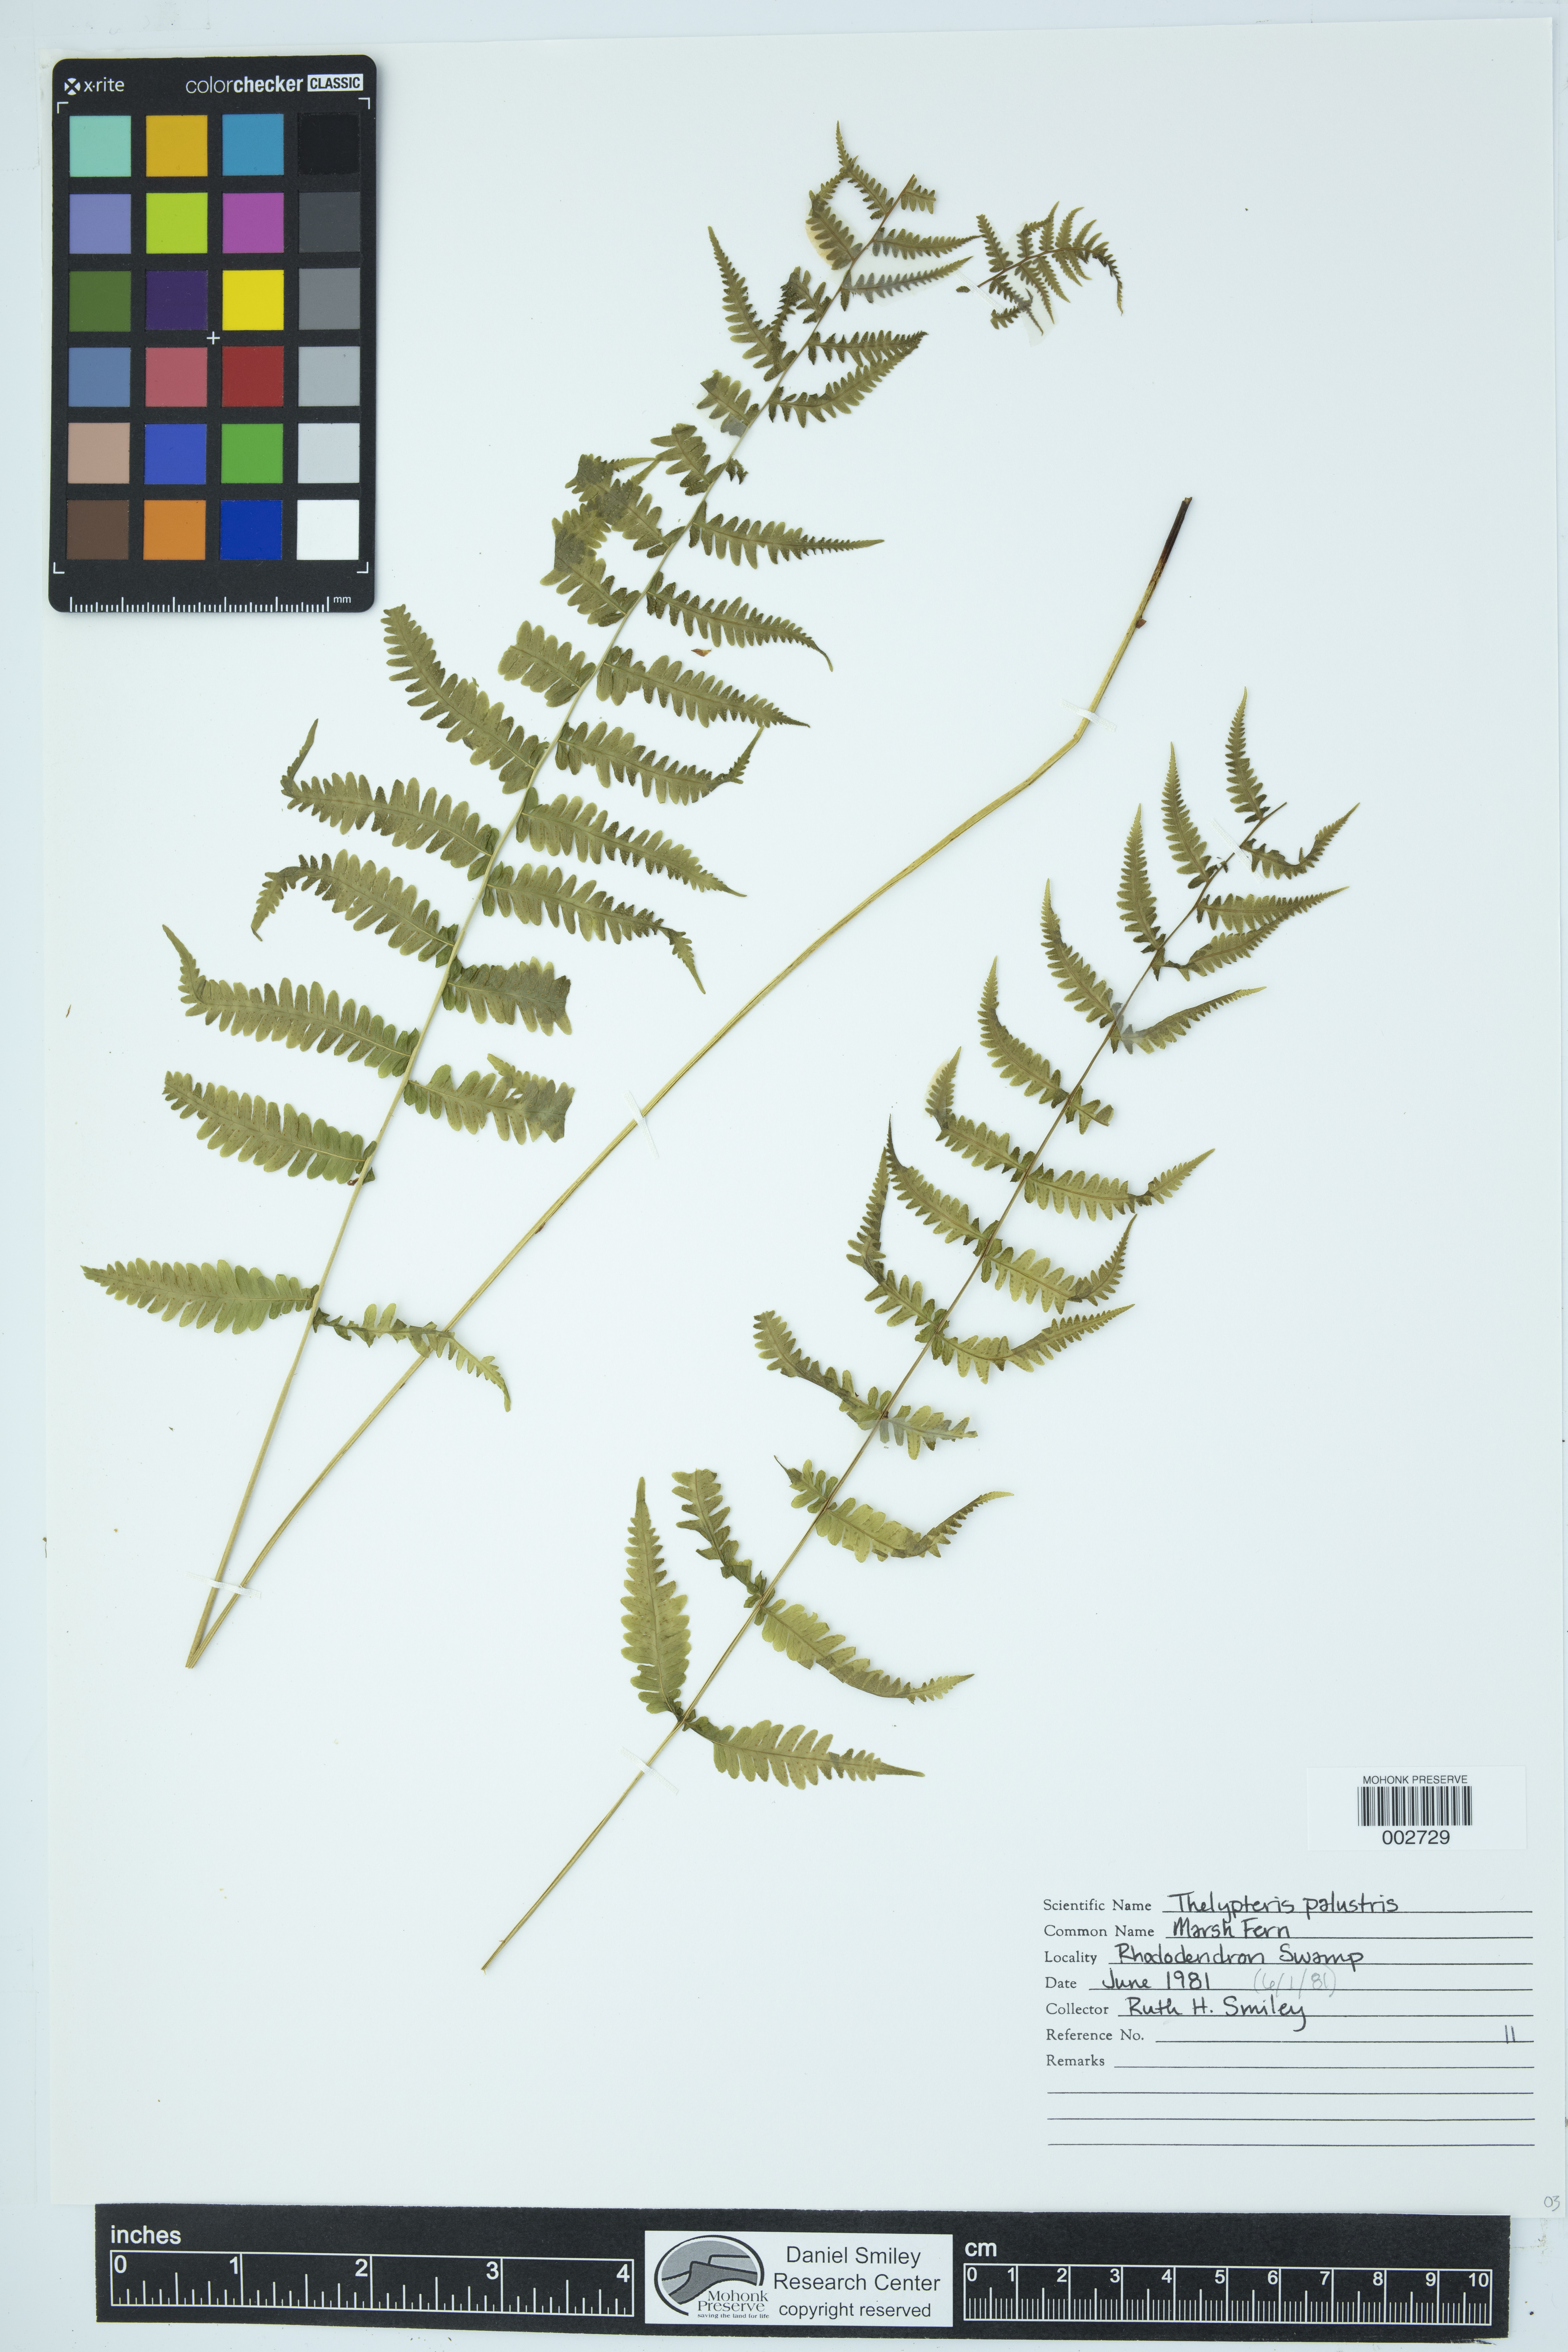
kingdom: Plantae
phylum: Tracheophyta
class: Polypodiopsida
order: Polypodiales
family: Thelypteridaceae
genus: Thelypteris
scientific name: Thelypteris confluens
